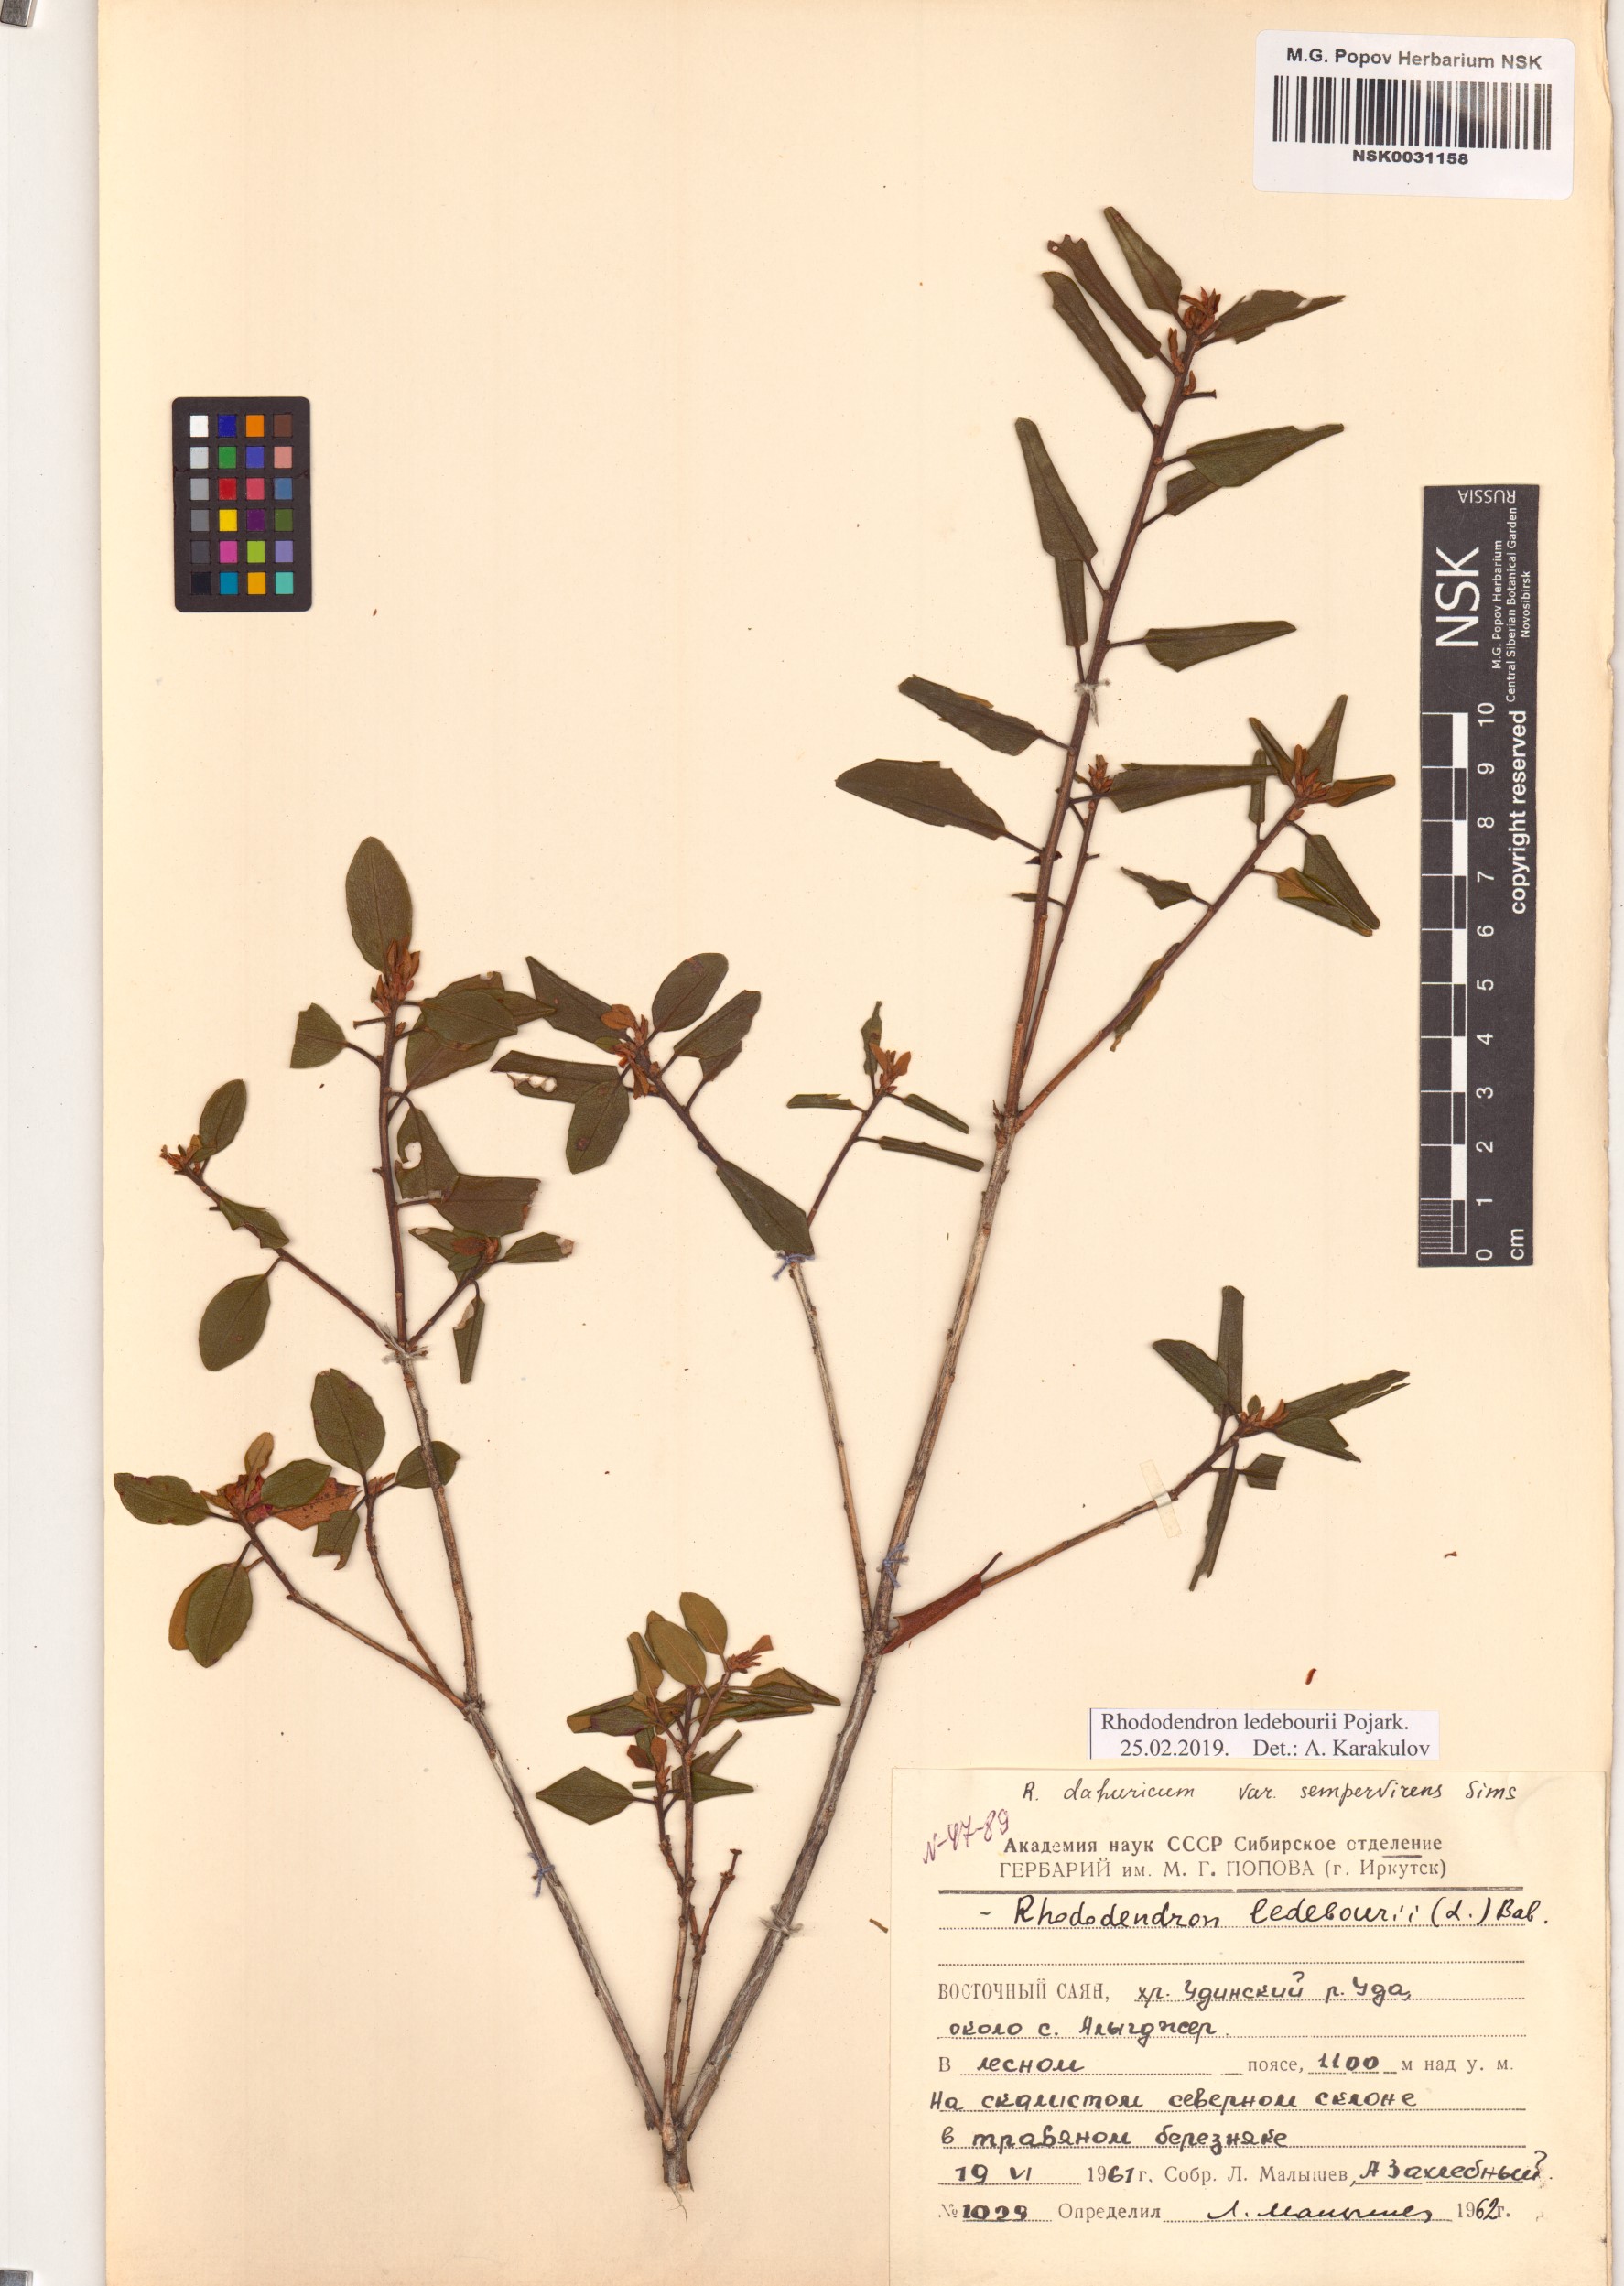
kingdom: Plantae
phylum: Tracheophyta
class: Magnoliopsida
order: Ericales
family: Ericaceae
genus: Rhododendron
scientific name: Rhododendron dauricum
